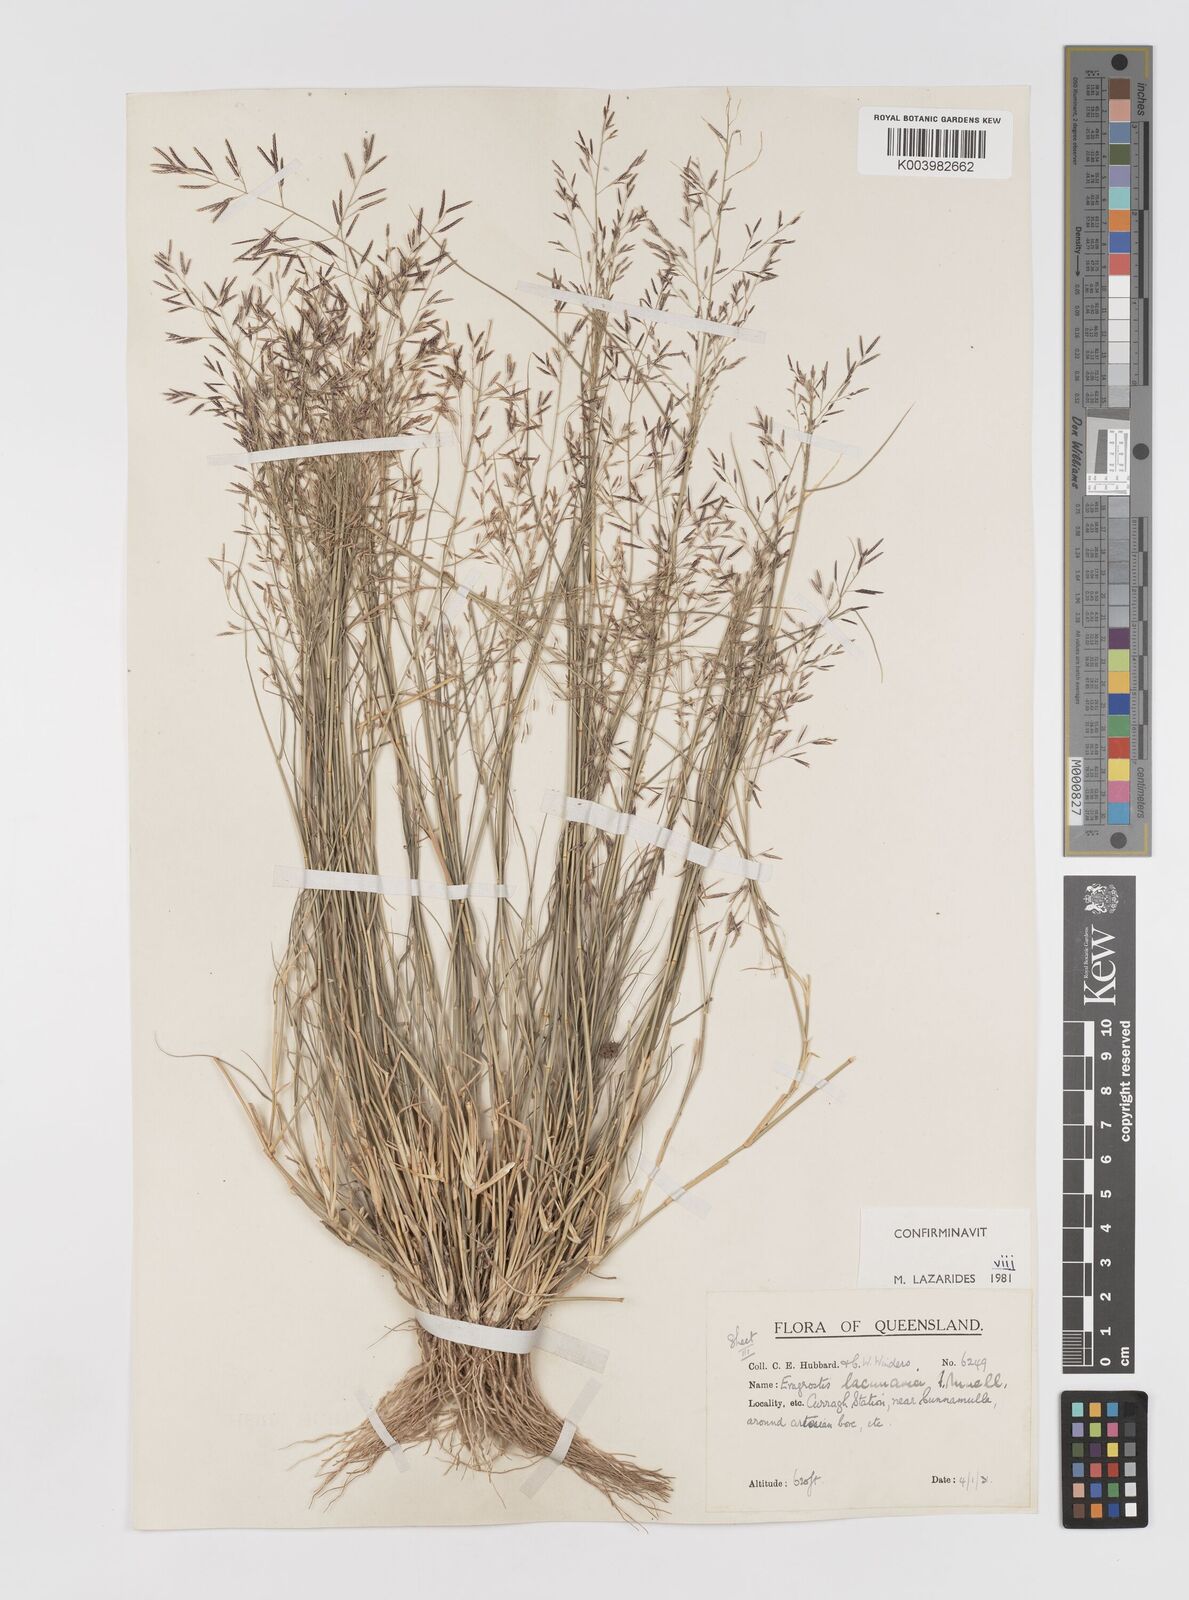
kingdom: Plantae
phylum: Tracheophyta
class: Liliopsida
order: Poales
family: Poaceae
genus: Eragrostis
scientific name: Eragrostis lacunaria
